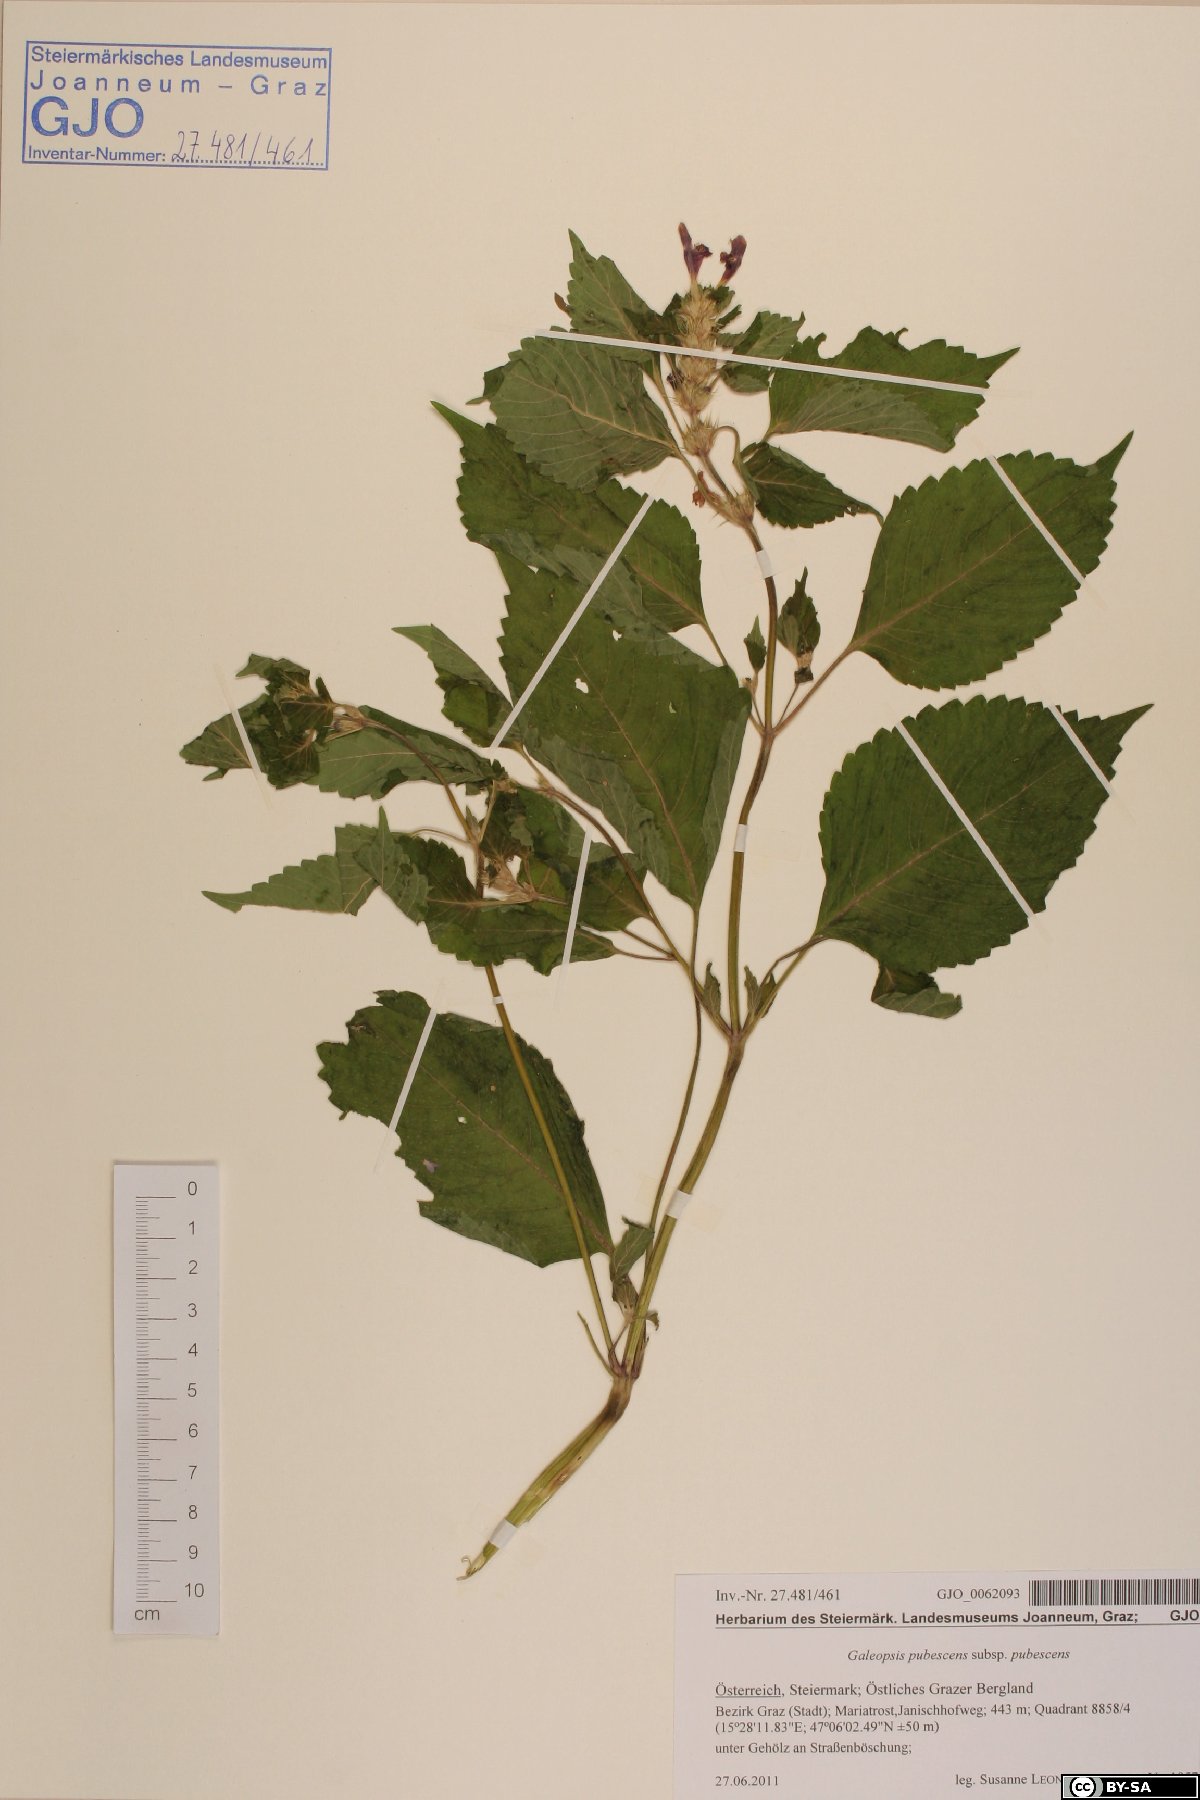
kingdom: Plantae
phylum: Tracheophyta
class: Magnoliopsida
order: Lamiales
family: Lamiaceae
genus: Galeopsis
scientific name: Galeopsis pubescens
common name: Downy hemp-nettle
